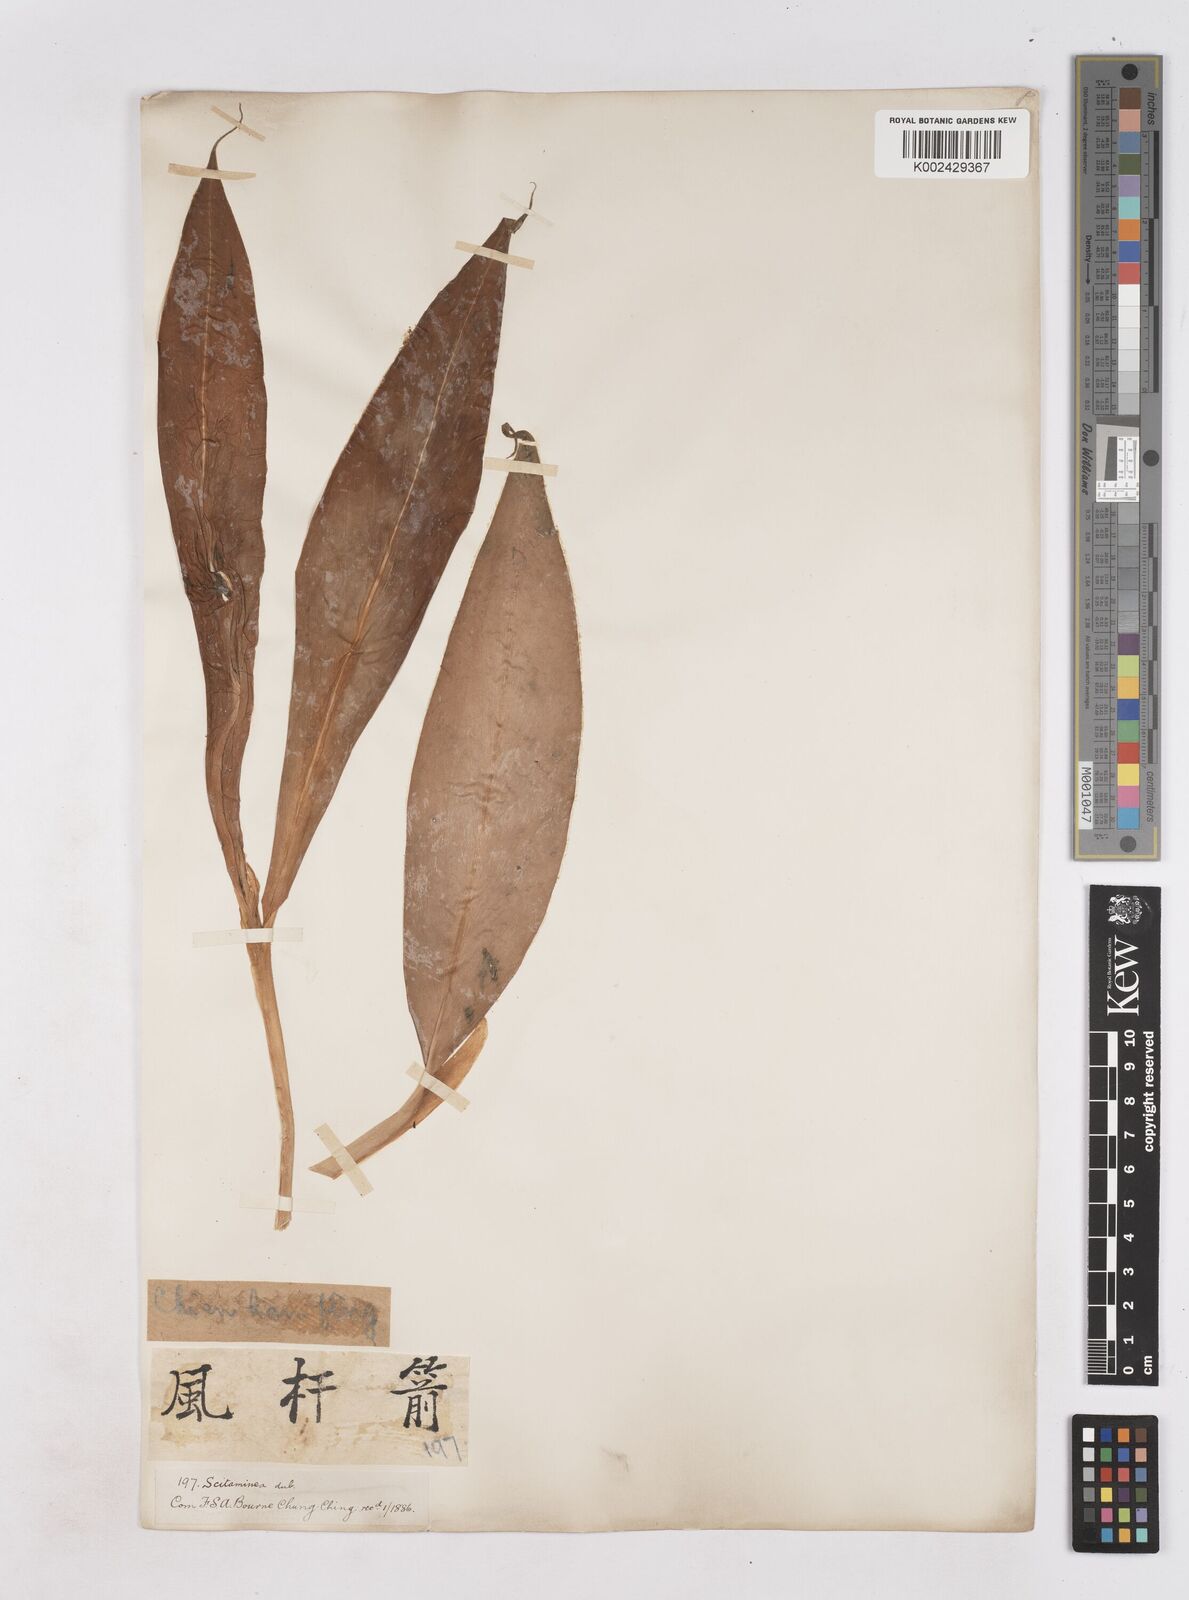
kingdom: Plantae
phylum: Tracheophyta
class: Liliopsida
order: Zingiberales
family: Zingiberaceae
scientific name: Zingiberaceae
